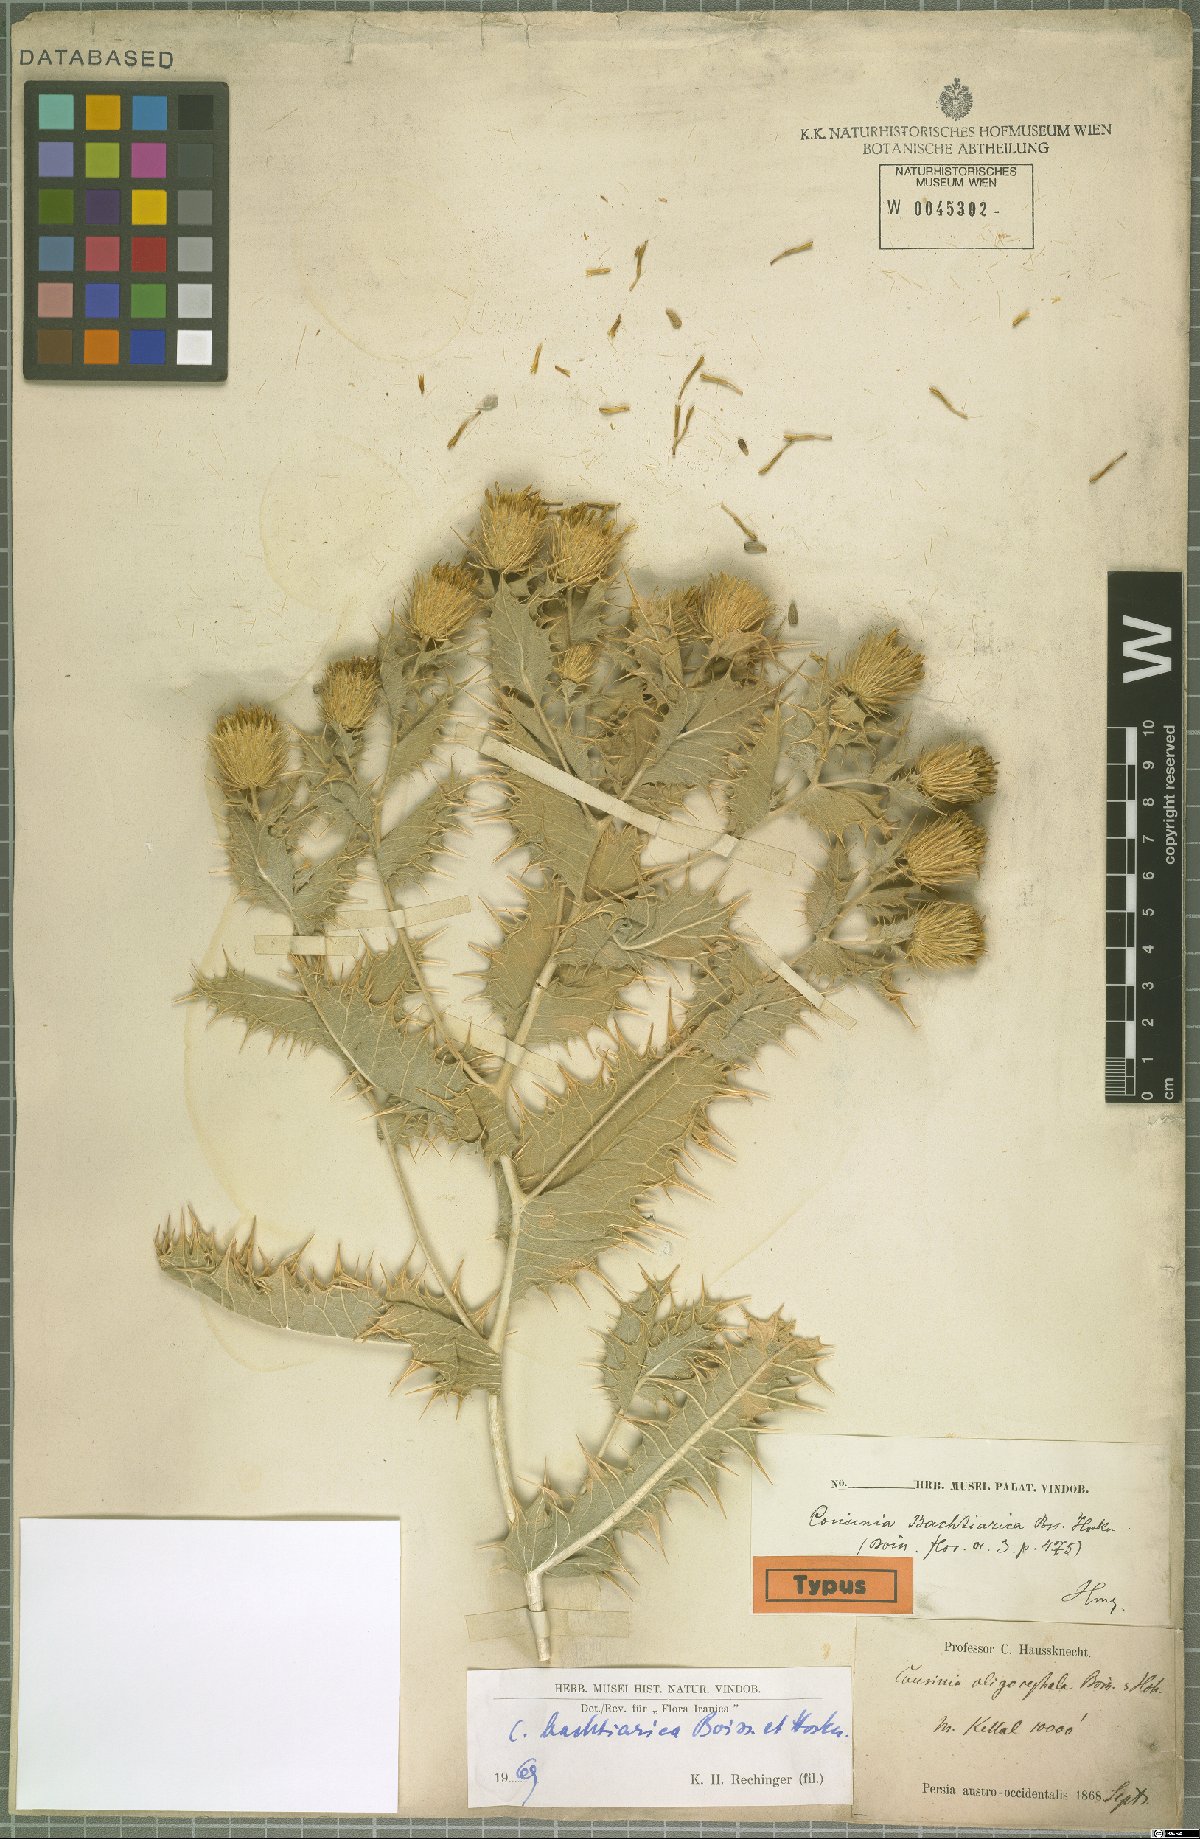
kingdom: Plantae
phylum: Tracheophyta
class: Magnoliopsida
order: Asterales
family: Asteraceae
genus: Cousinia
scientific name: Cousinia bachtiarica
